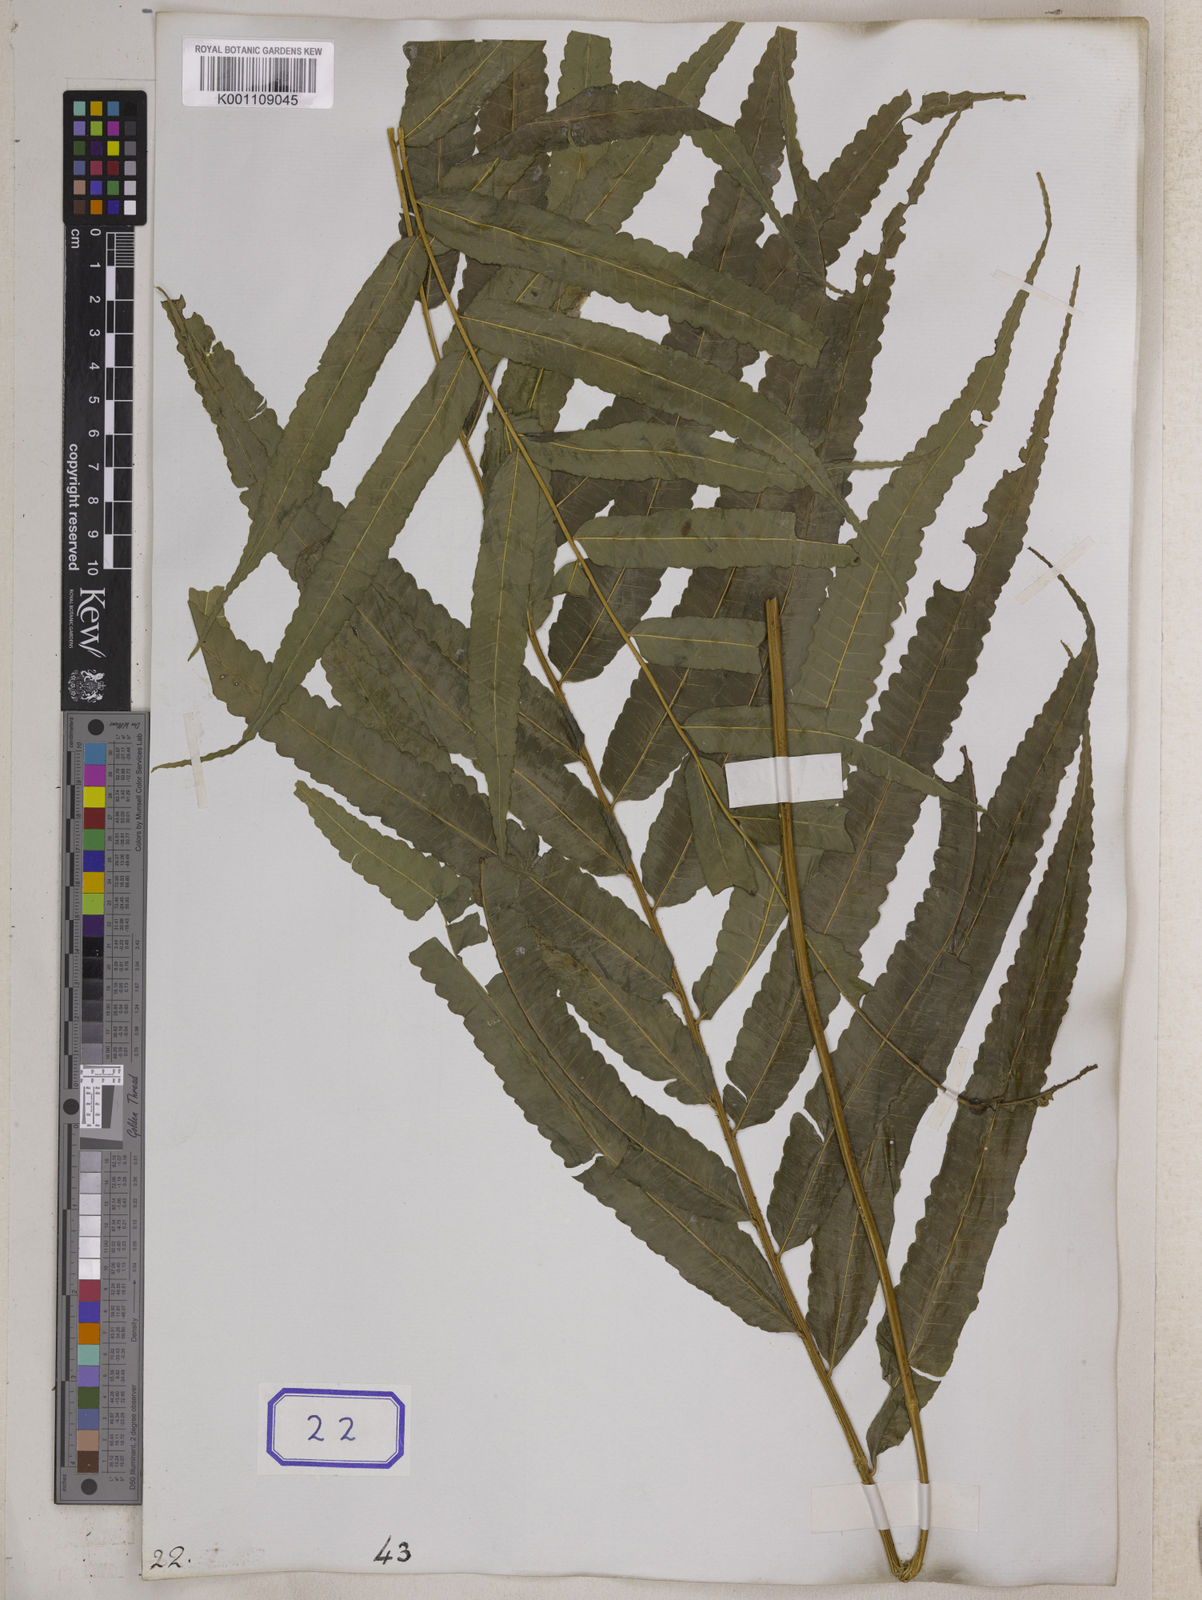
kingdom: Plantae
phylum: Tracheophyta
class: Polypodiopsida
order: Polypodiales
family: Dryopteridaceae
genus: Bolbitis
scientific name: Bolbitis angustipinna
